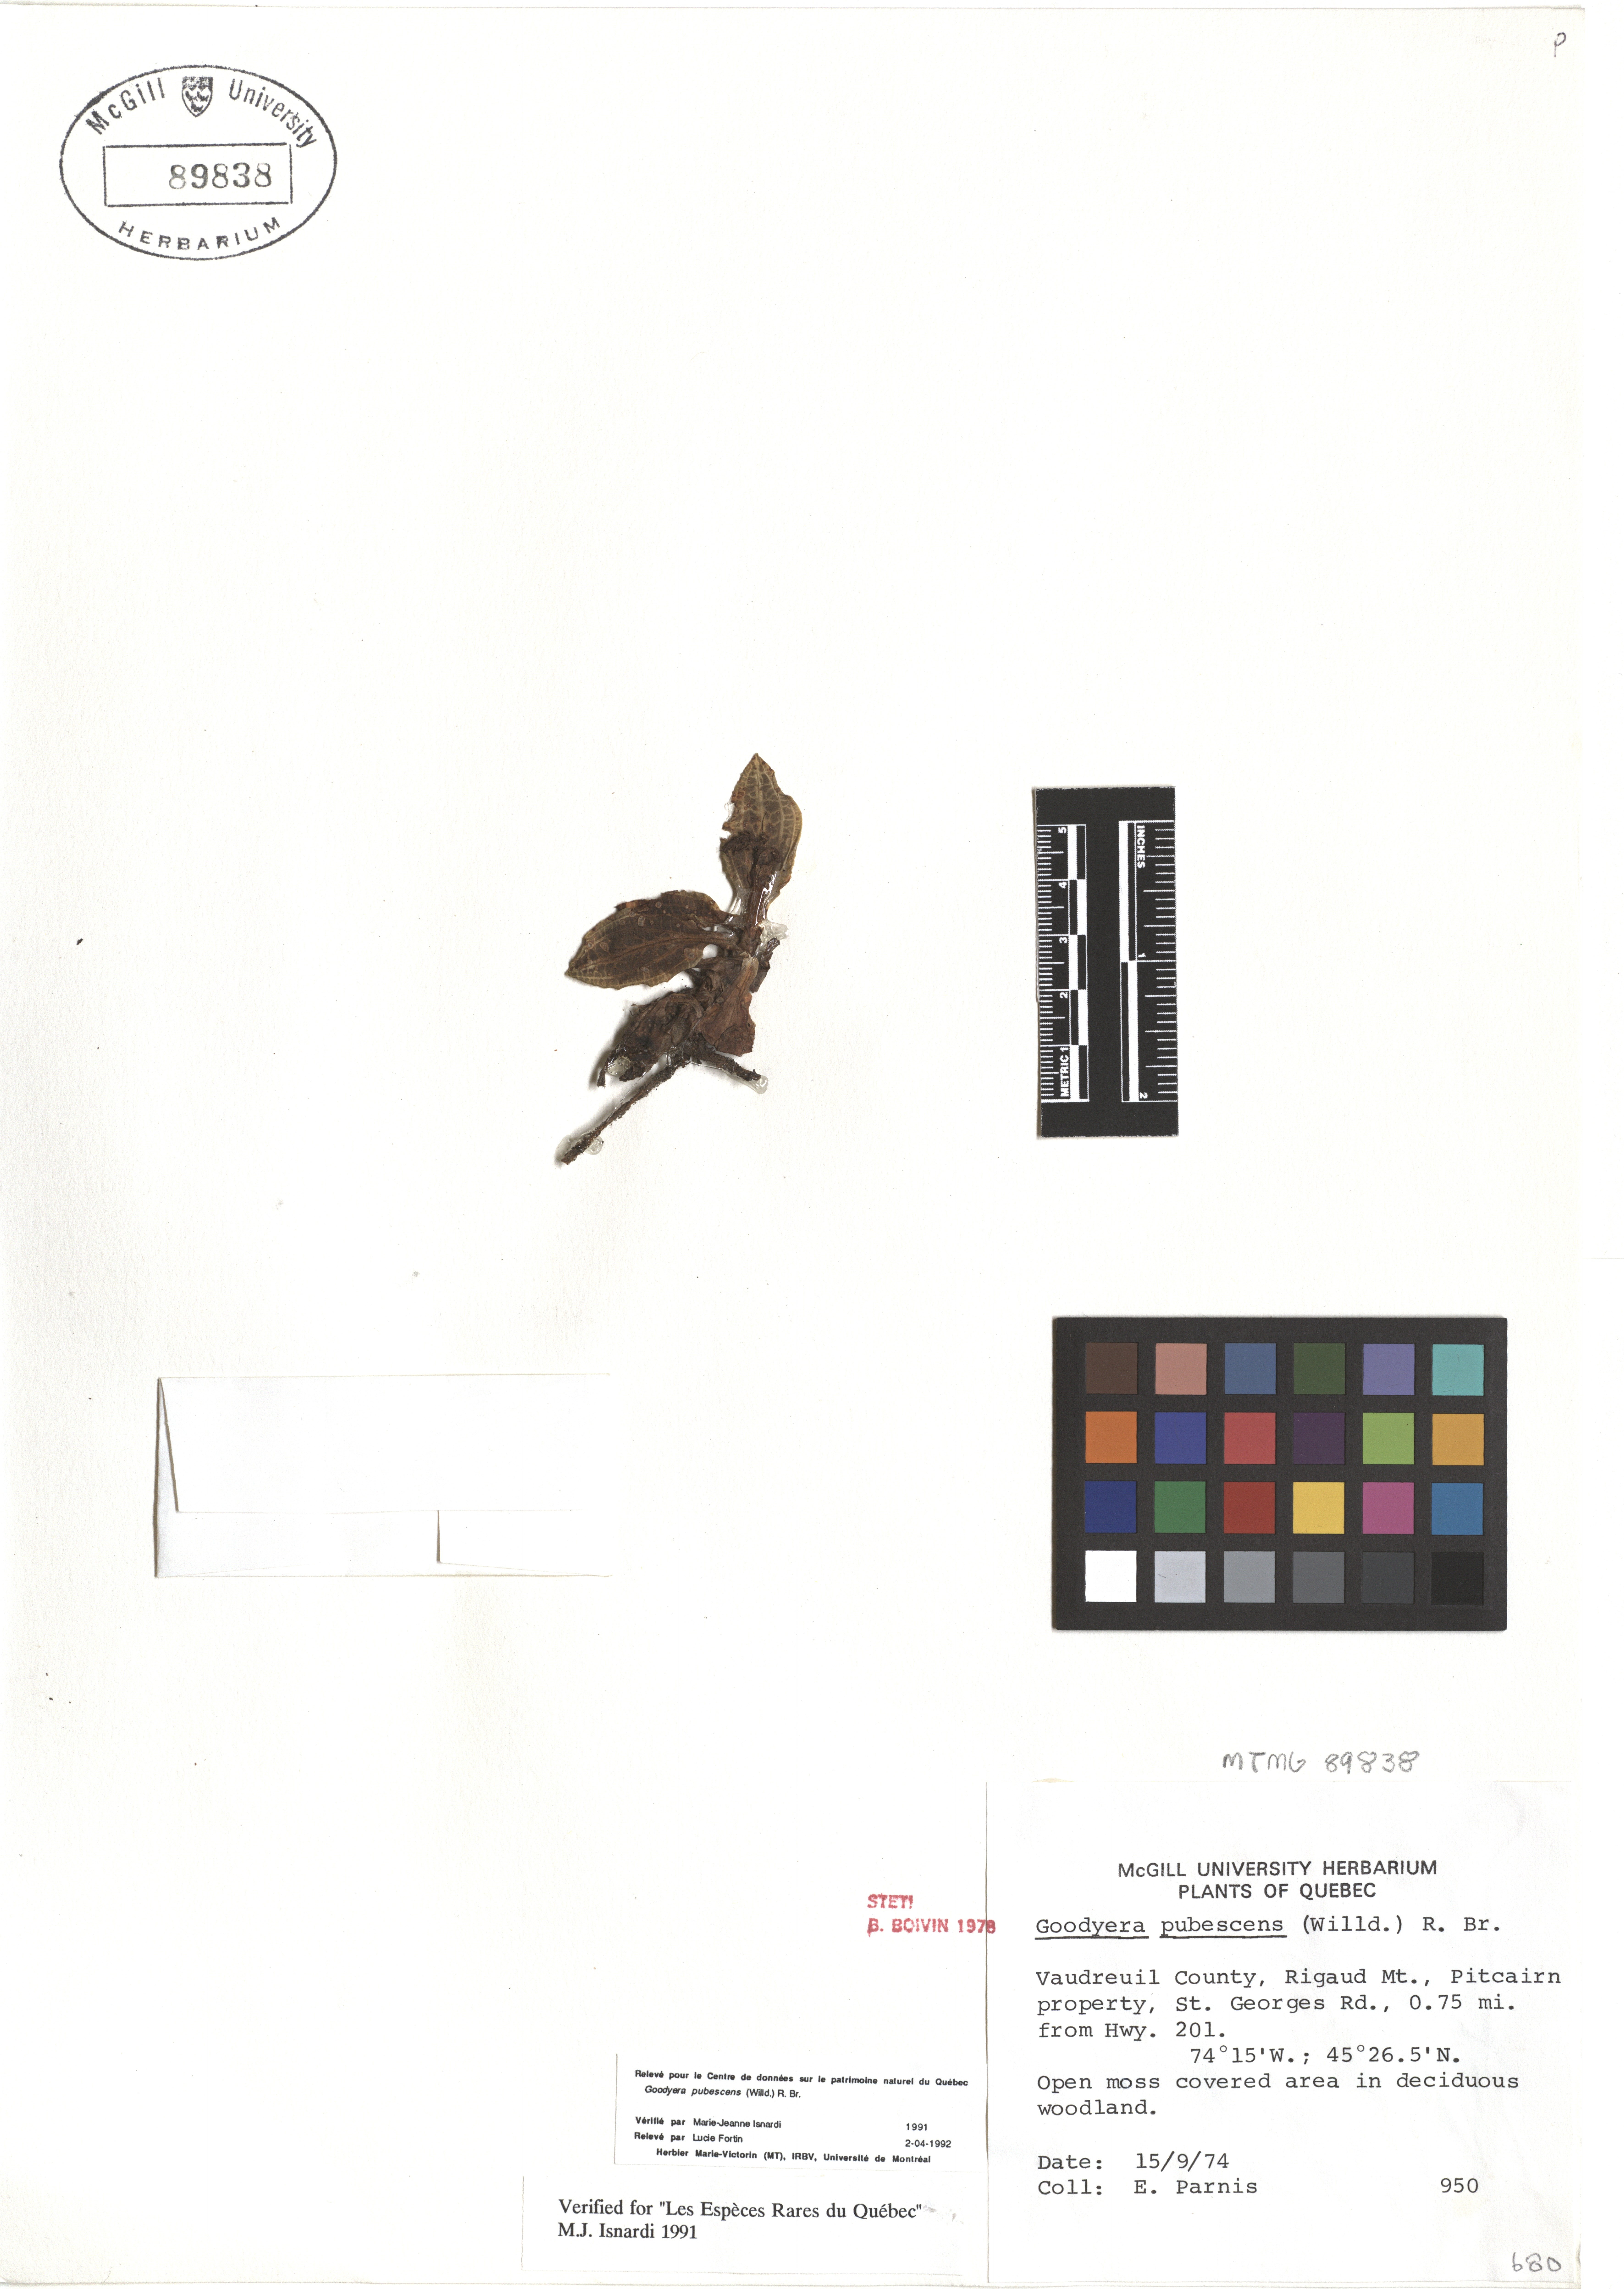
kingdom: Plantae
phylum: Tracheophyta
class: Liliopsida
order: Asparagales
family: Orchidaceae
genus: Goodyera
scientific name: Goodyera pubescens
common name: Downy rattlesnake-plantain
